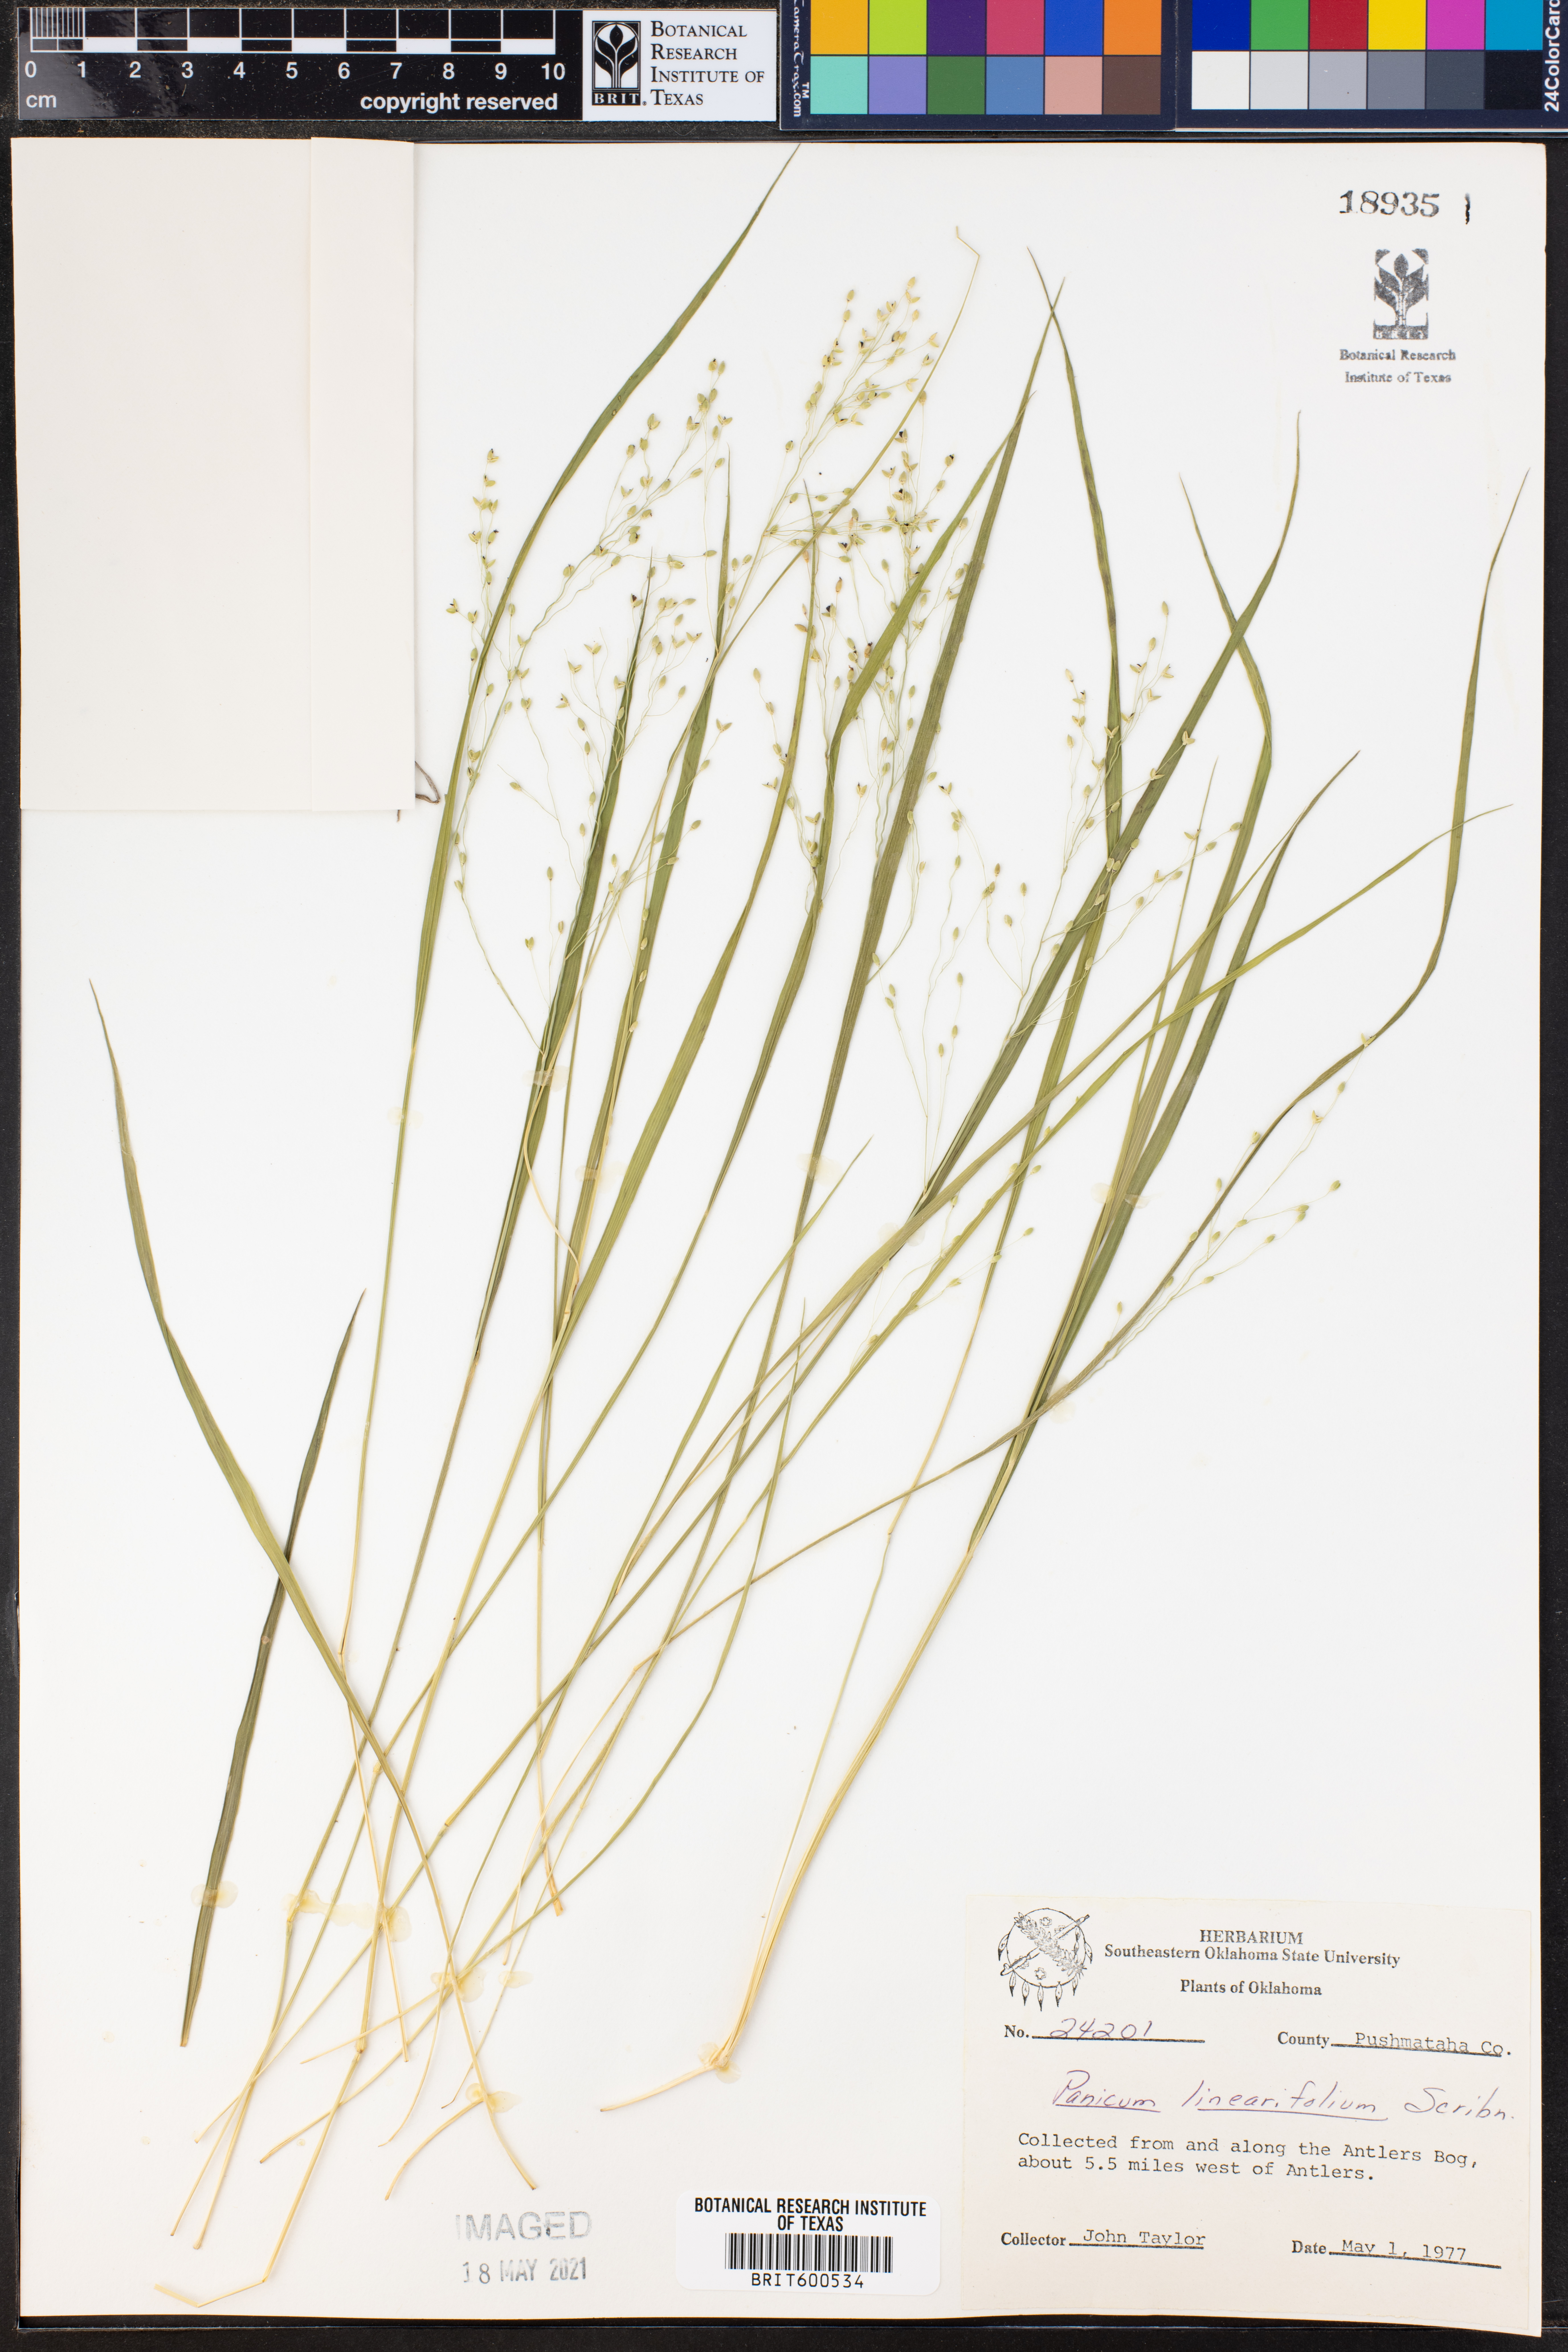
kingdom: Plantae
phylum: Tracheophyta
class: Liliopsida
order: Poales
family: Poaceae
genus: Dichanthelium
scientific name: Dichanthelium linearifolium
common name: Linear-leaved panicgrass
